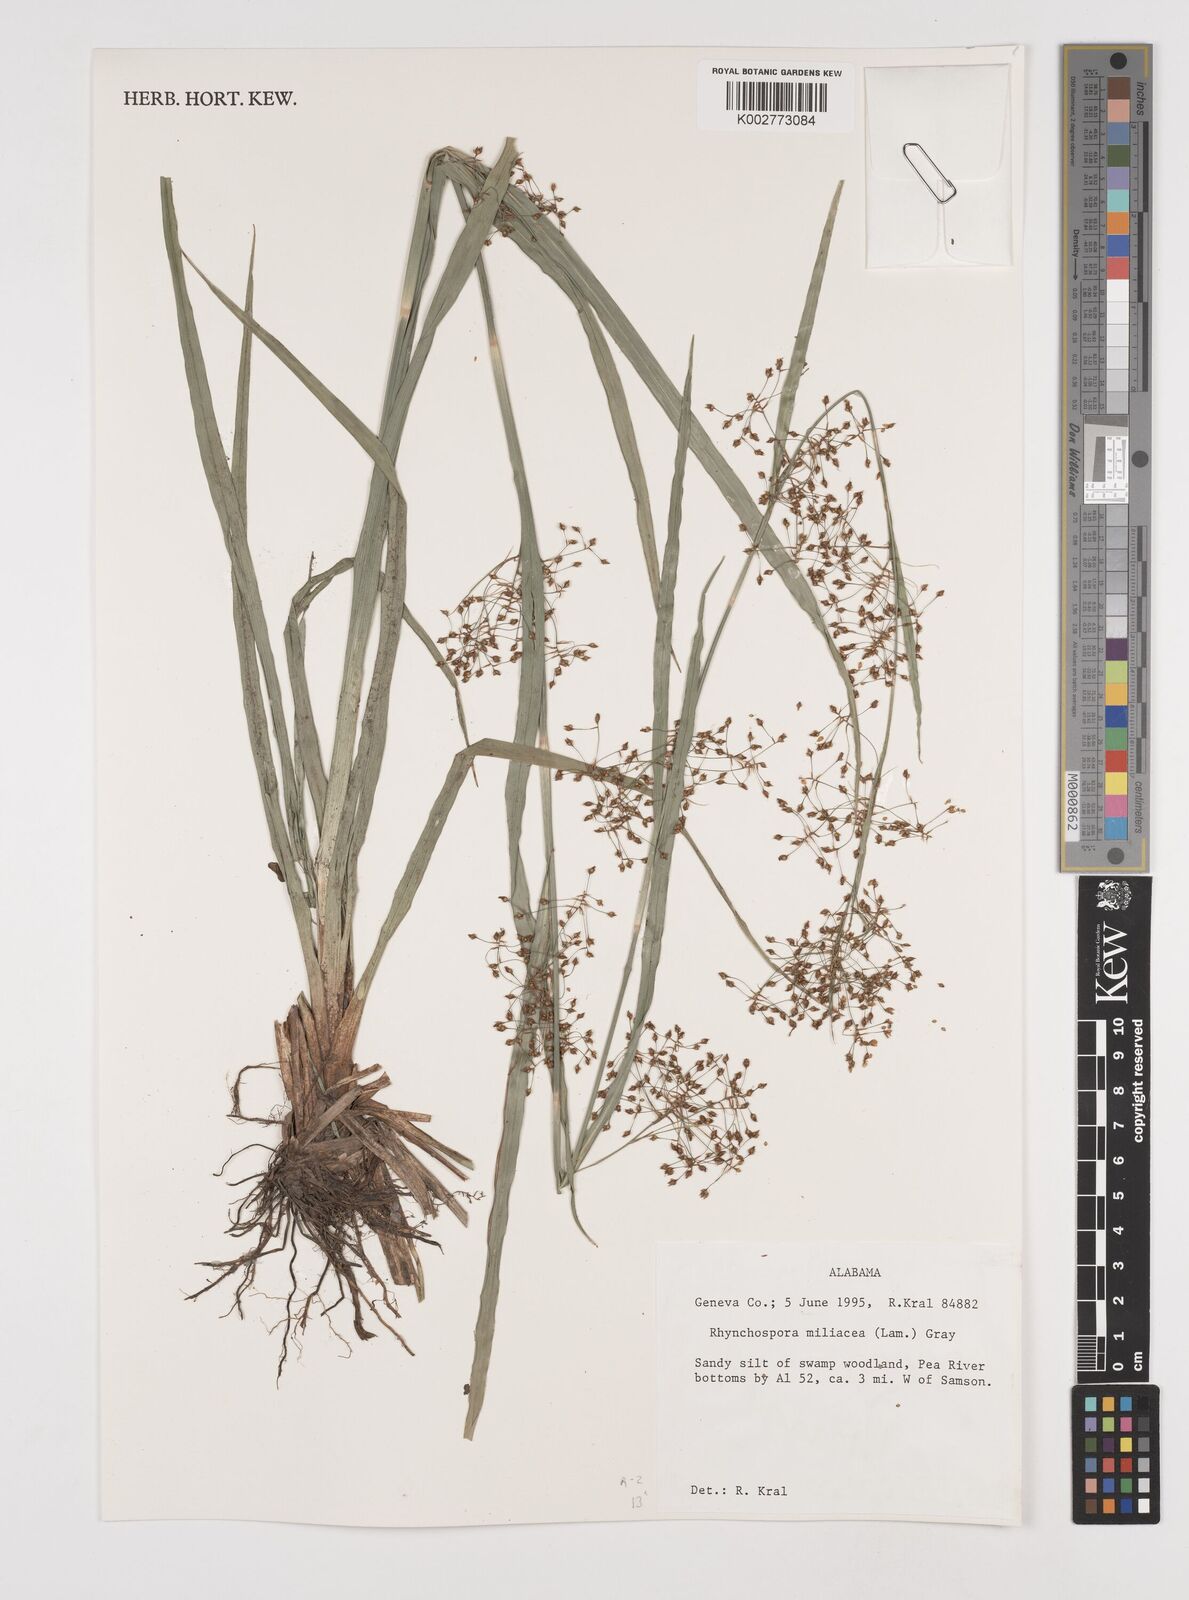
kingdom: Plantae
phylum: Tracheophyta
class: Liliopsida
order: Poales
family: Cyperaceae
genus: Rhynchospora
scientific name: Rhynchospora miliacea
